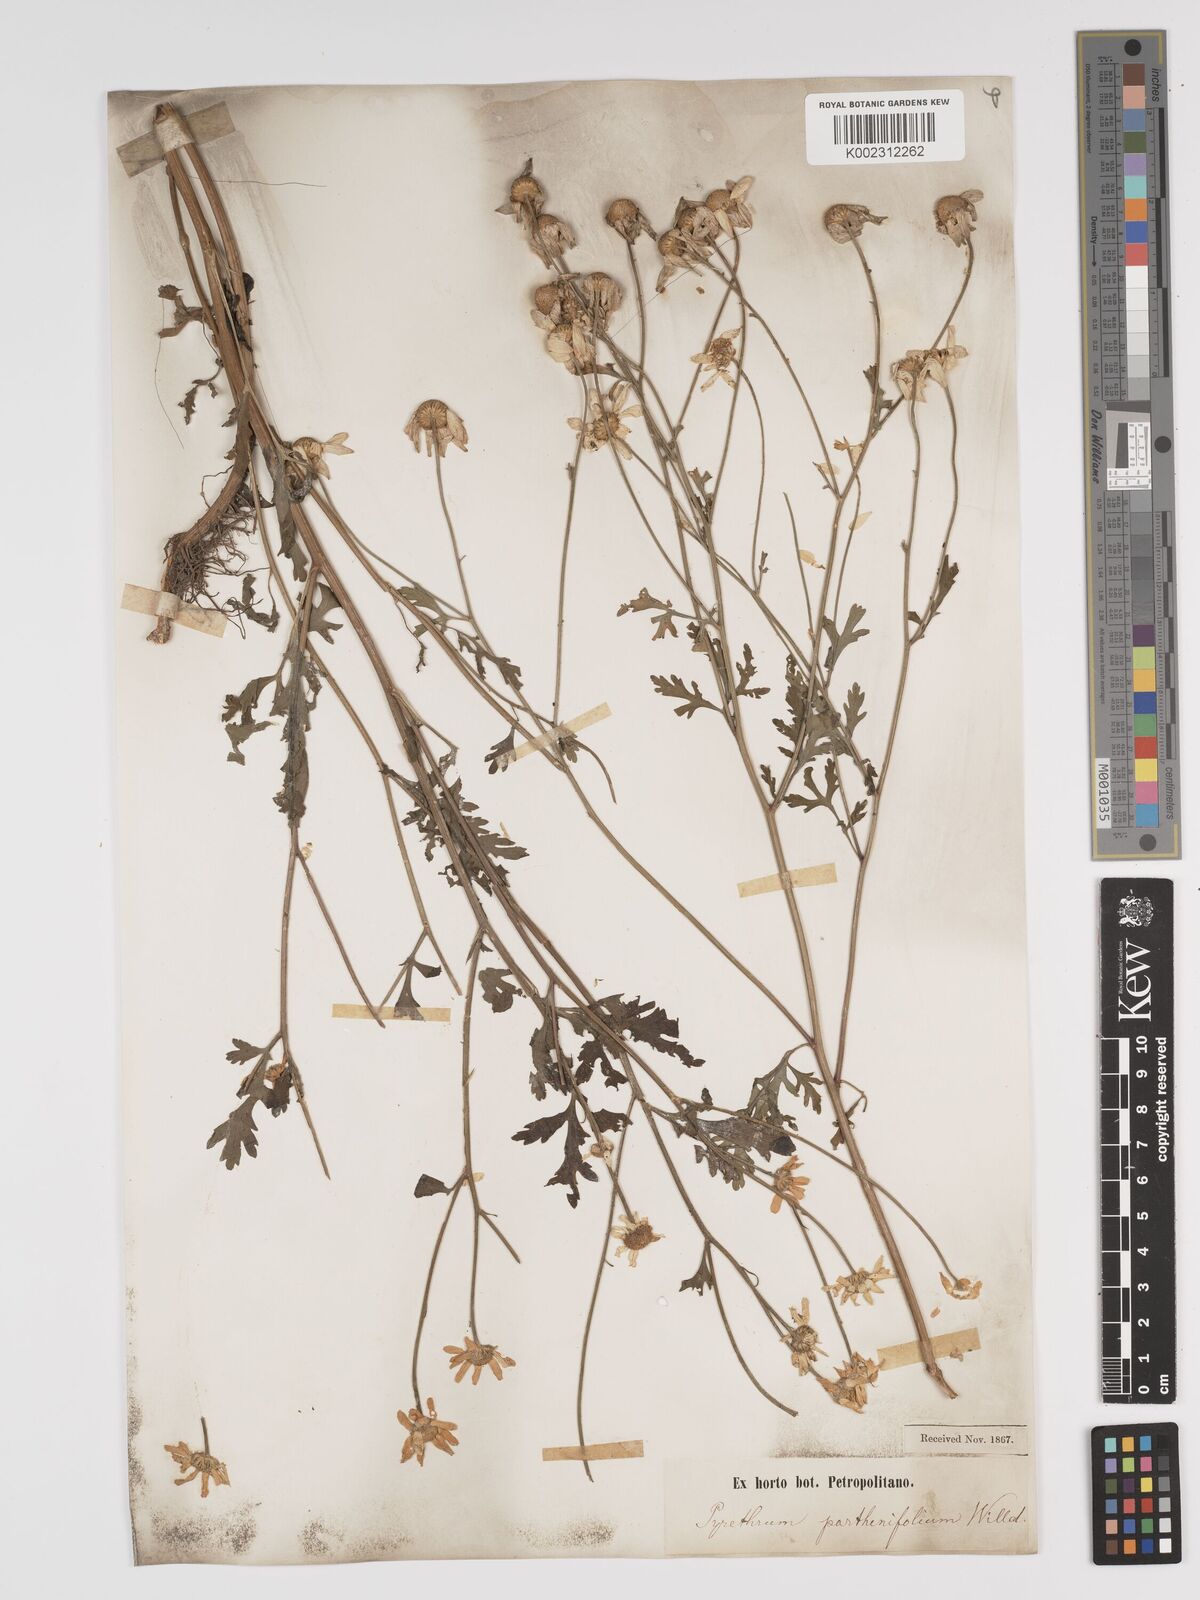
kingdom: Plantae
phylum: Tracheophyta
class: Magnoliopsida
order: Asterales
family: Asteraceae
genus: Tanacetum
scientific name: Tanacetum partheniifolium
